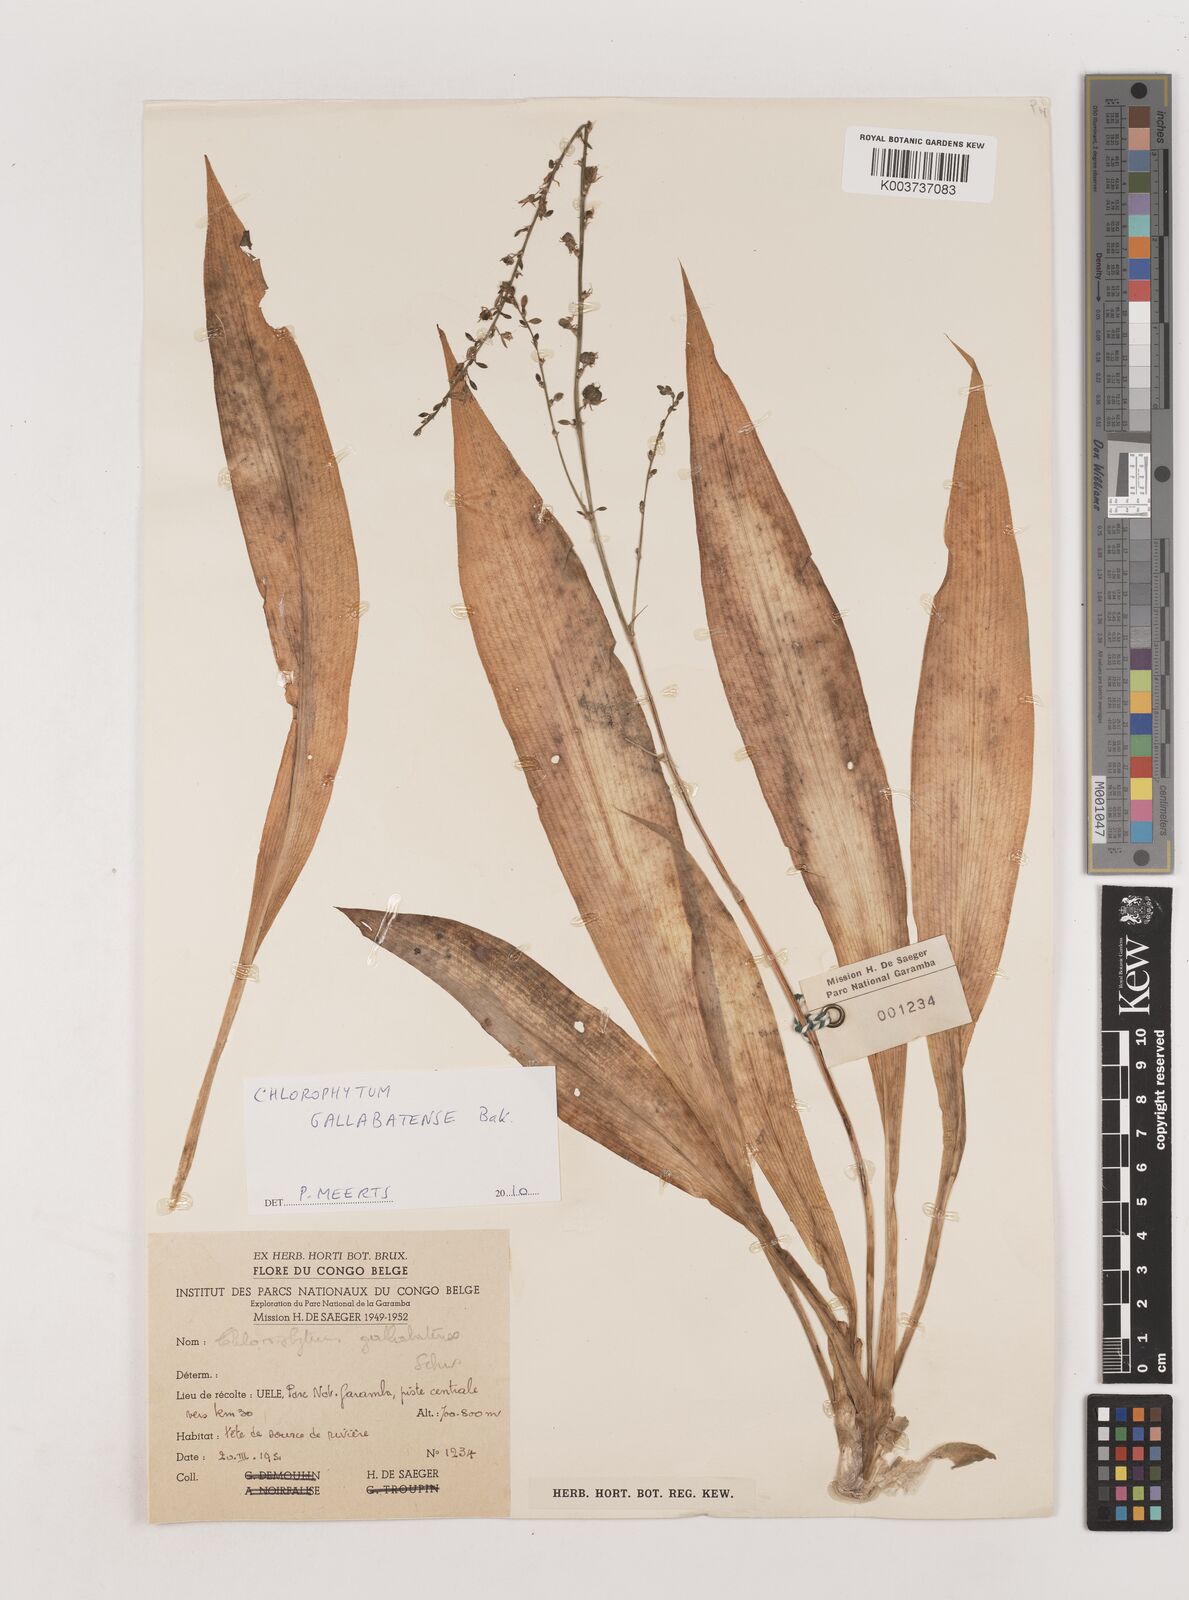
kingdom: Plantae
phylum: Tracheophyta
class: Liliopsida
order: Asparagales
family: Asparagaceae
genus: Chlorophytum
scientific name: Chlorophytum gallabatense
